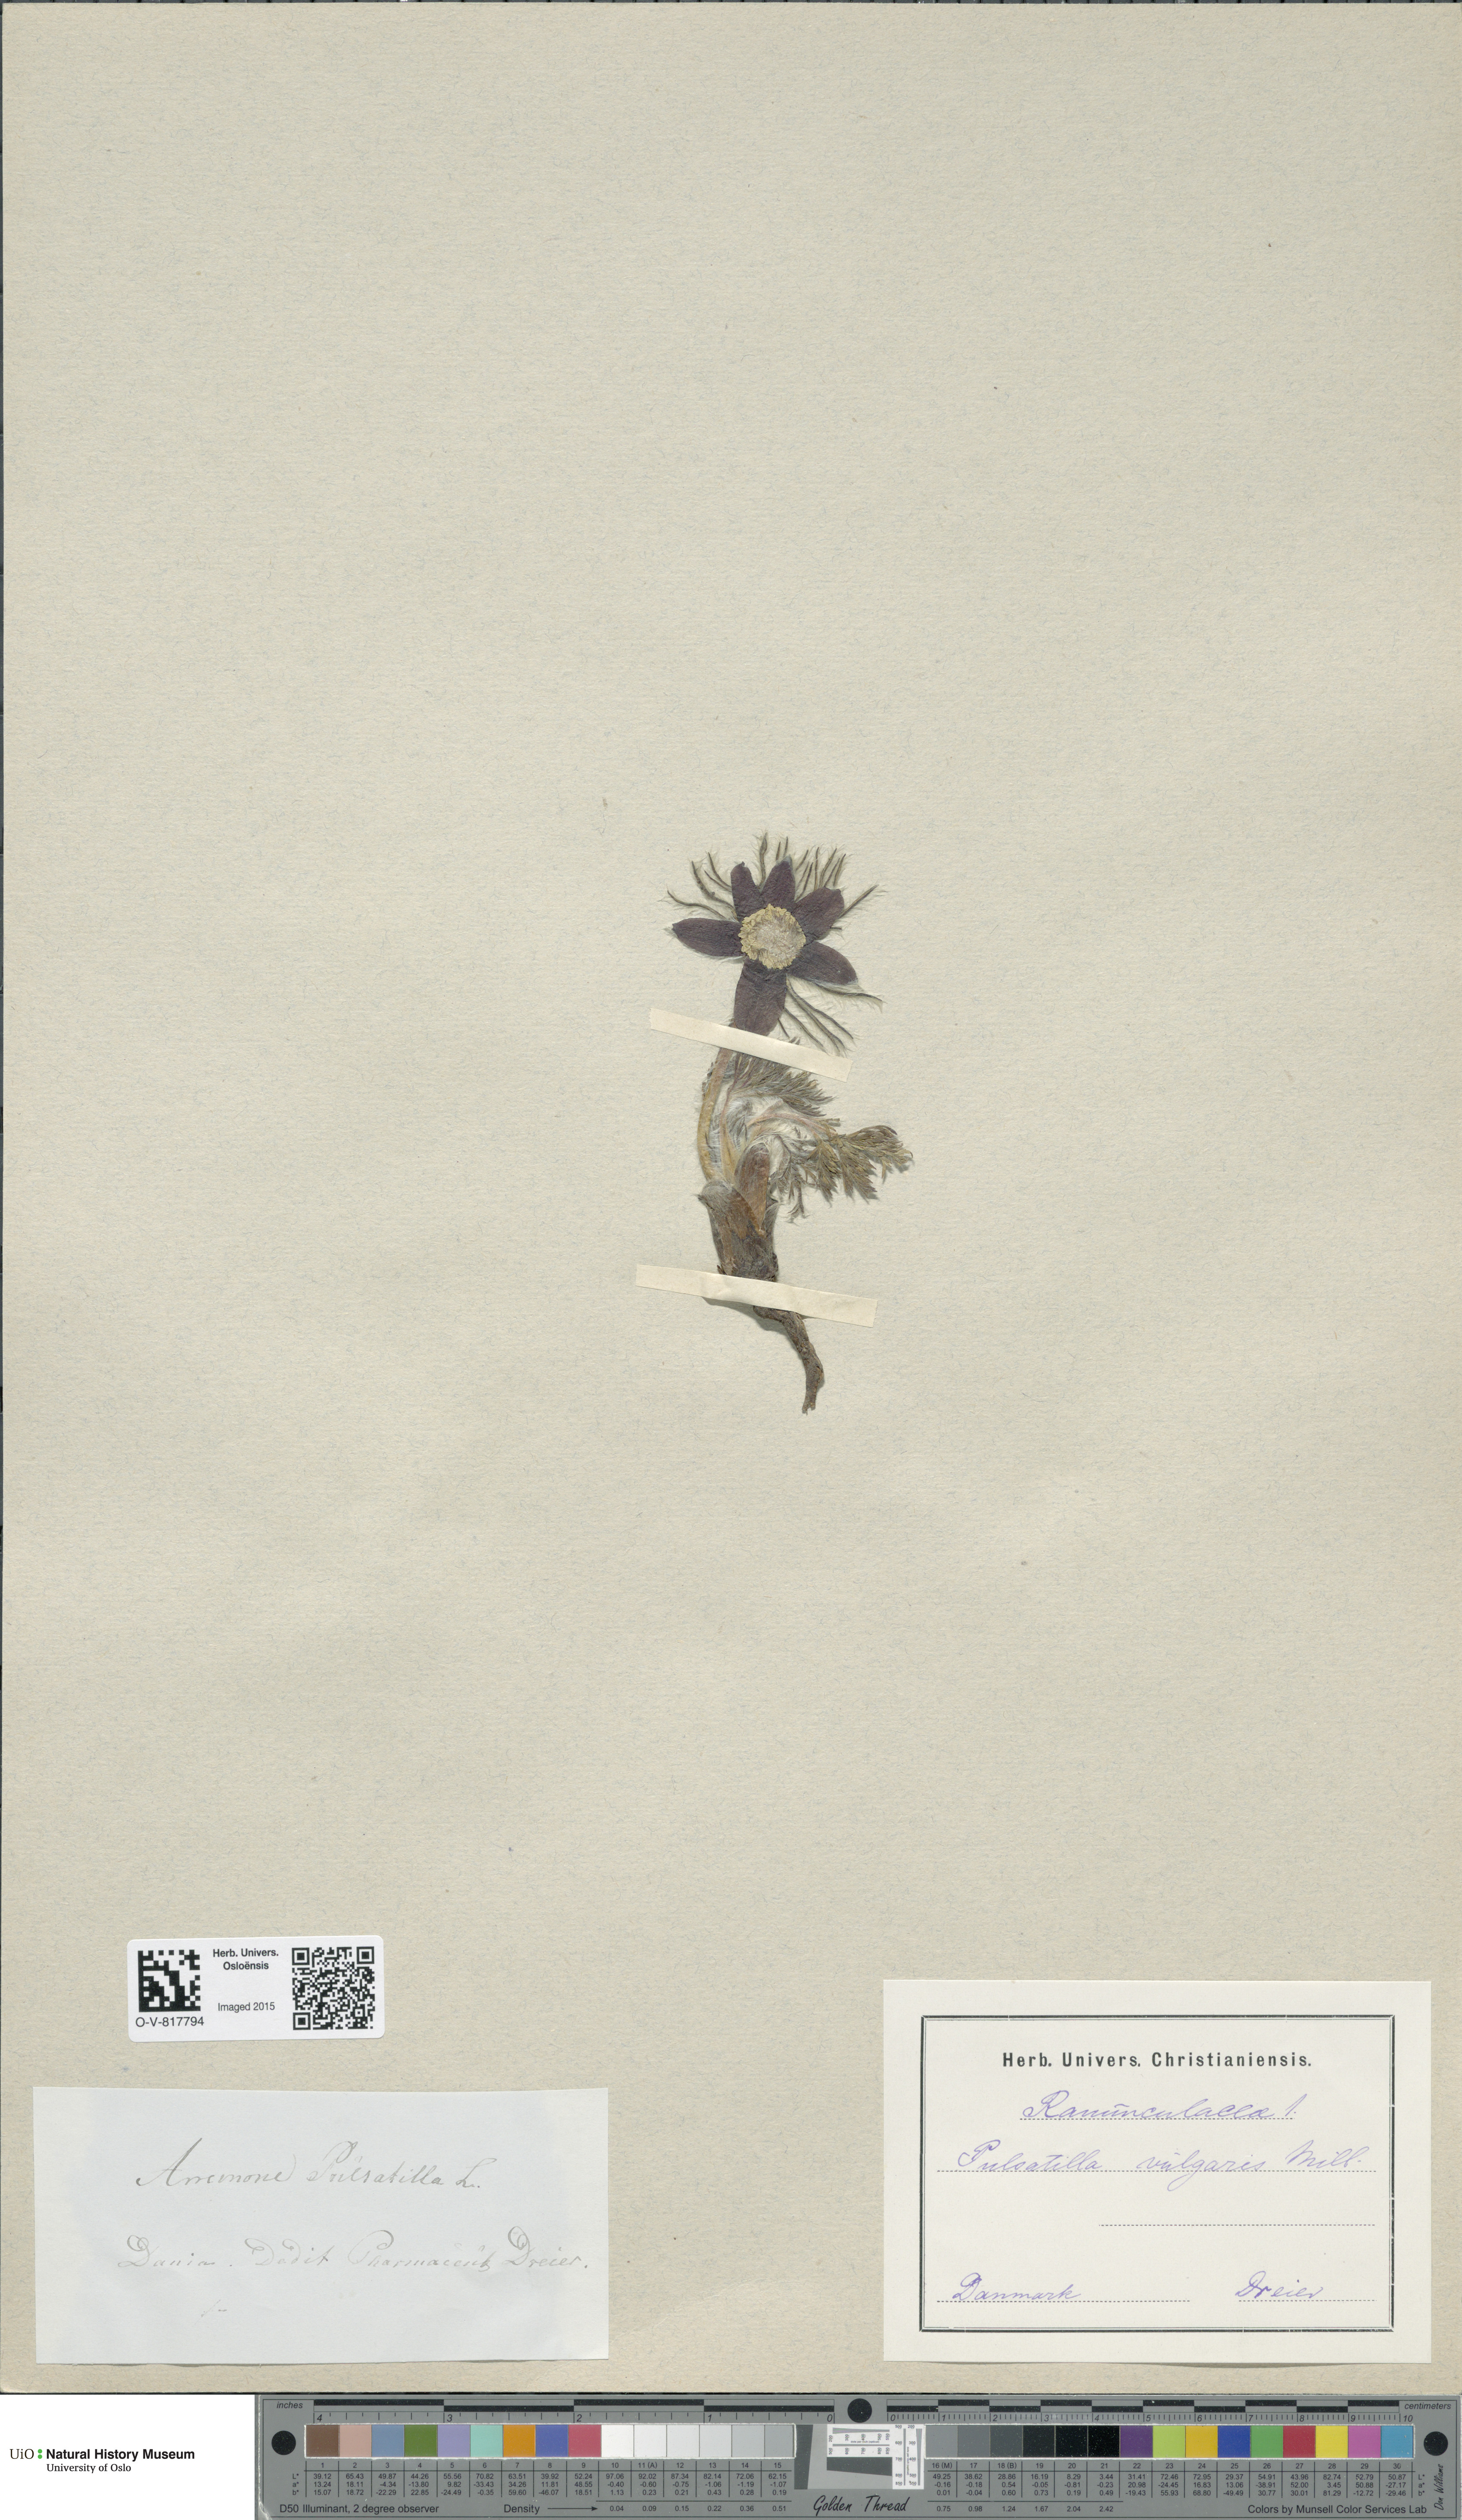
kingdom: Plantae
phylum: Tracheophyta
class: Magnoliopsida
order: Ranunculales
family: Ranunculaceae
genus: Pulsatilla
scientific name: Pulsatilla vulgaris
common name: Pasqueflower
